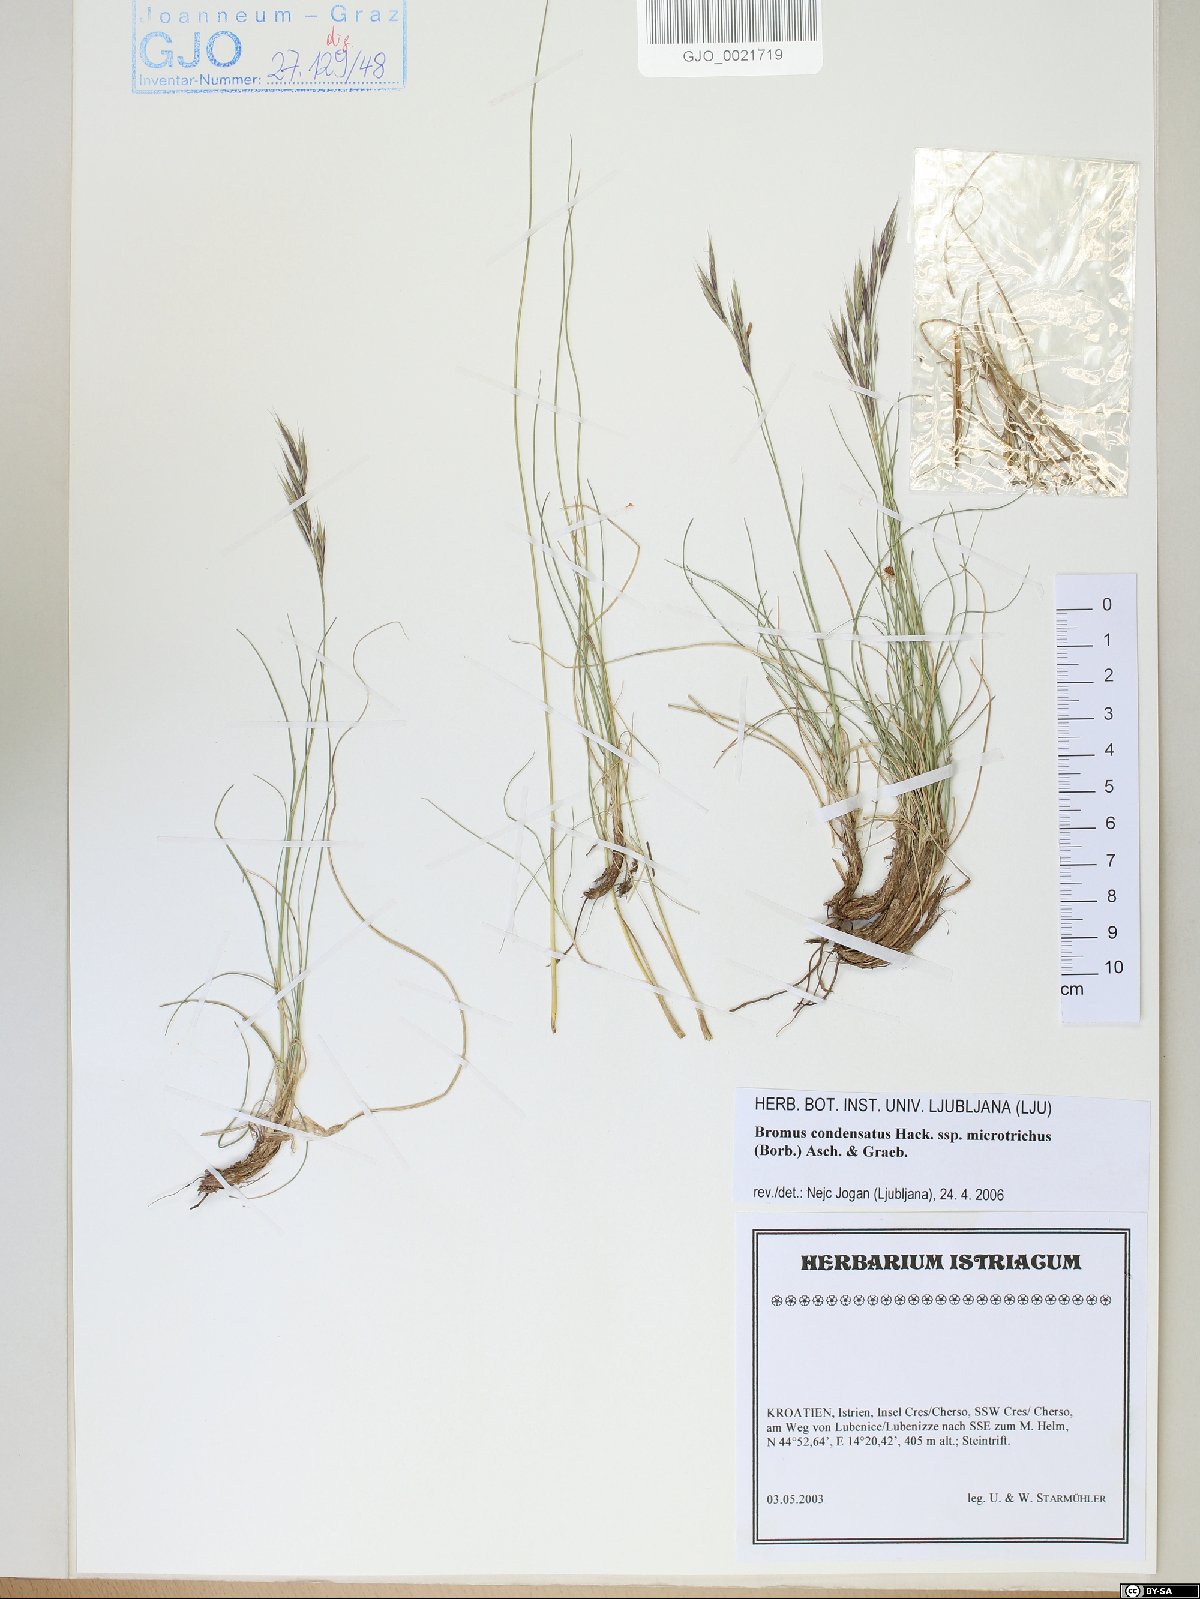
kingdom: Plantae
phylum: Tracheophyta
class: Liliopsida
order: Poales
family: Poaceae
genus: Bromus
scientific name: Bromus condensatus
